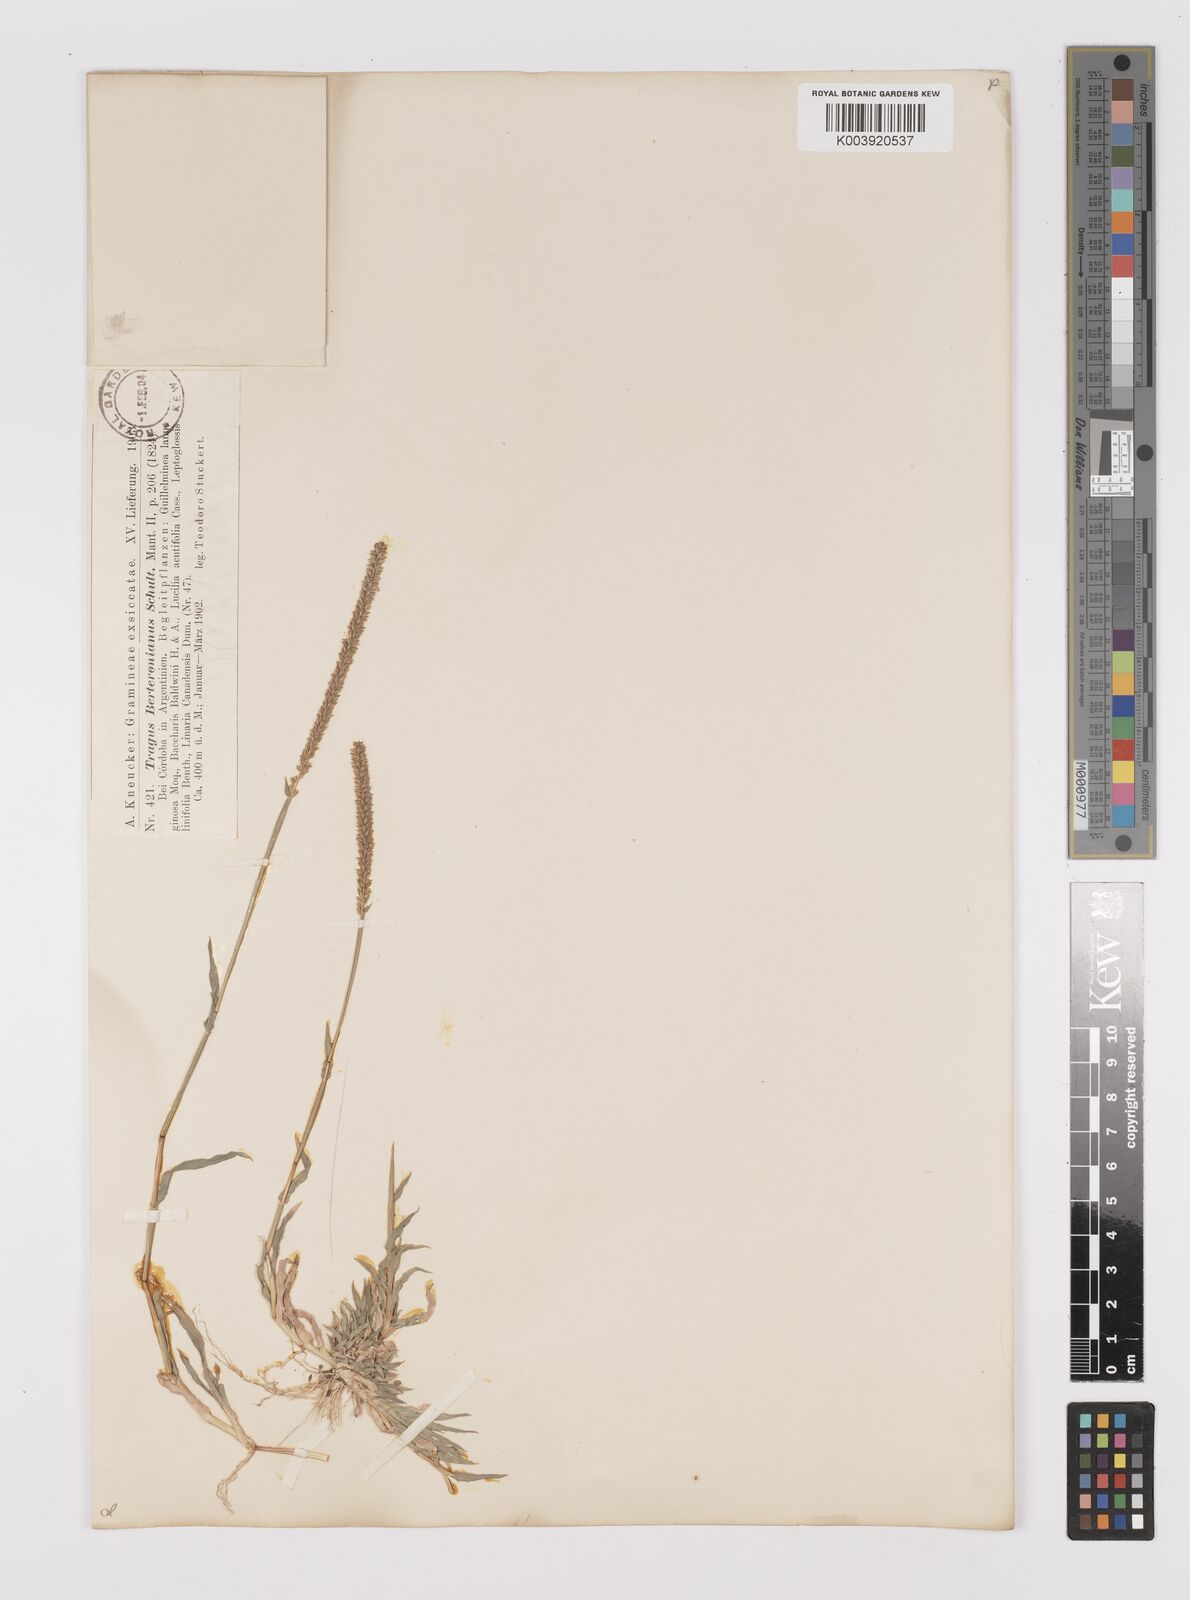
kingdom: Plantae
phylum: Tracheophyta
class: Liliopsida
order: Poales
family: Poaceae
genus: Tragus
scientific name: Tragus berteronianus
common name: African bur-grass
